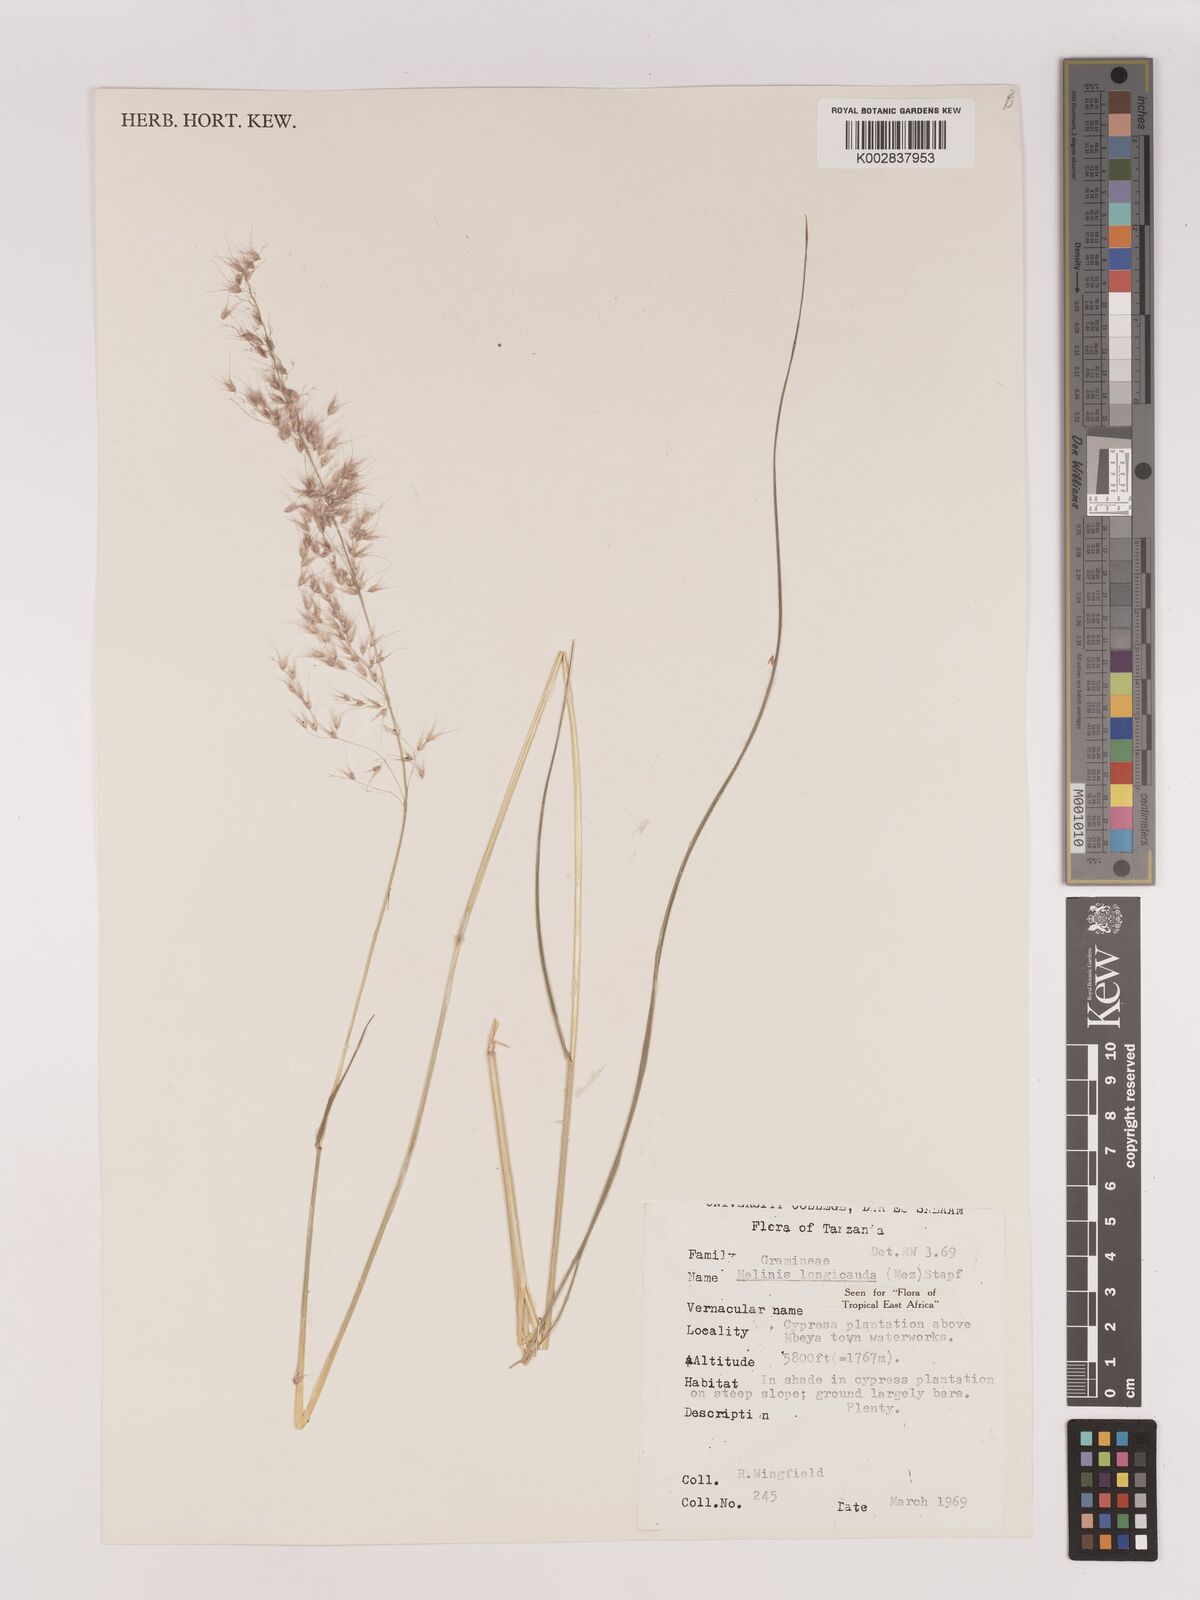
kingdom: Plantae
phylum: Tracheophyta
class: Liliopsida
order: Poales
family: Poaceae
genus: Melinis
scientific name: Melinis ambigua
